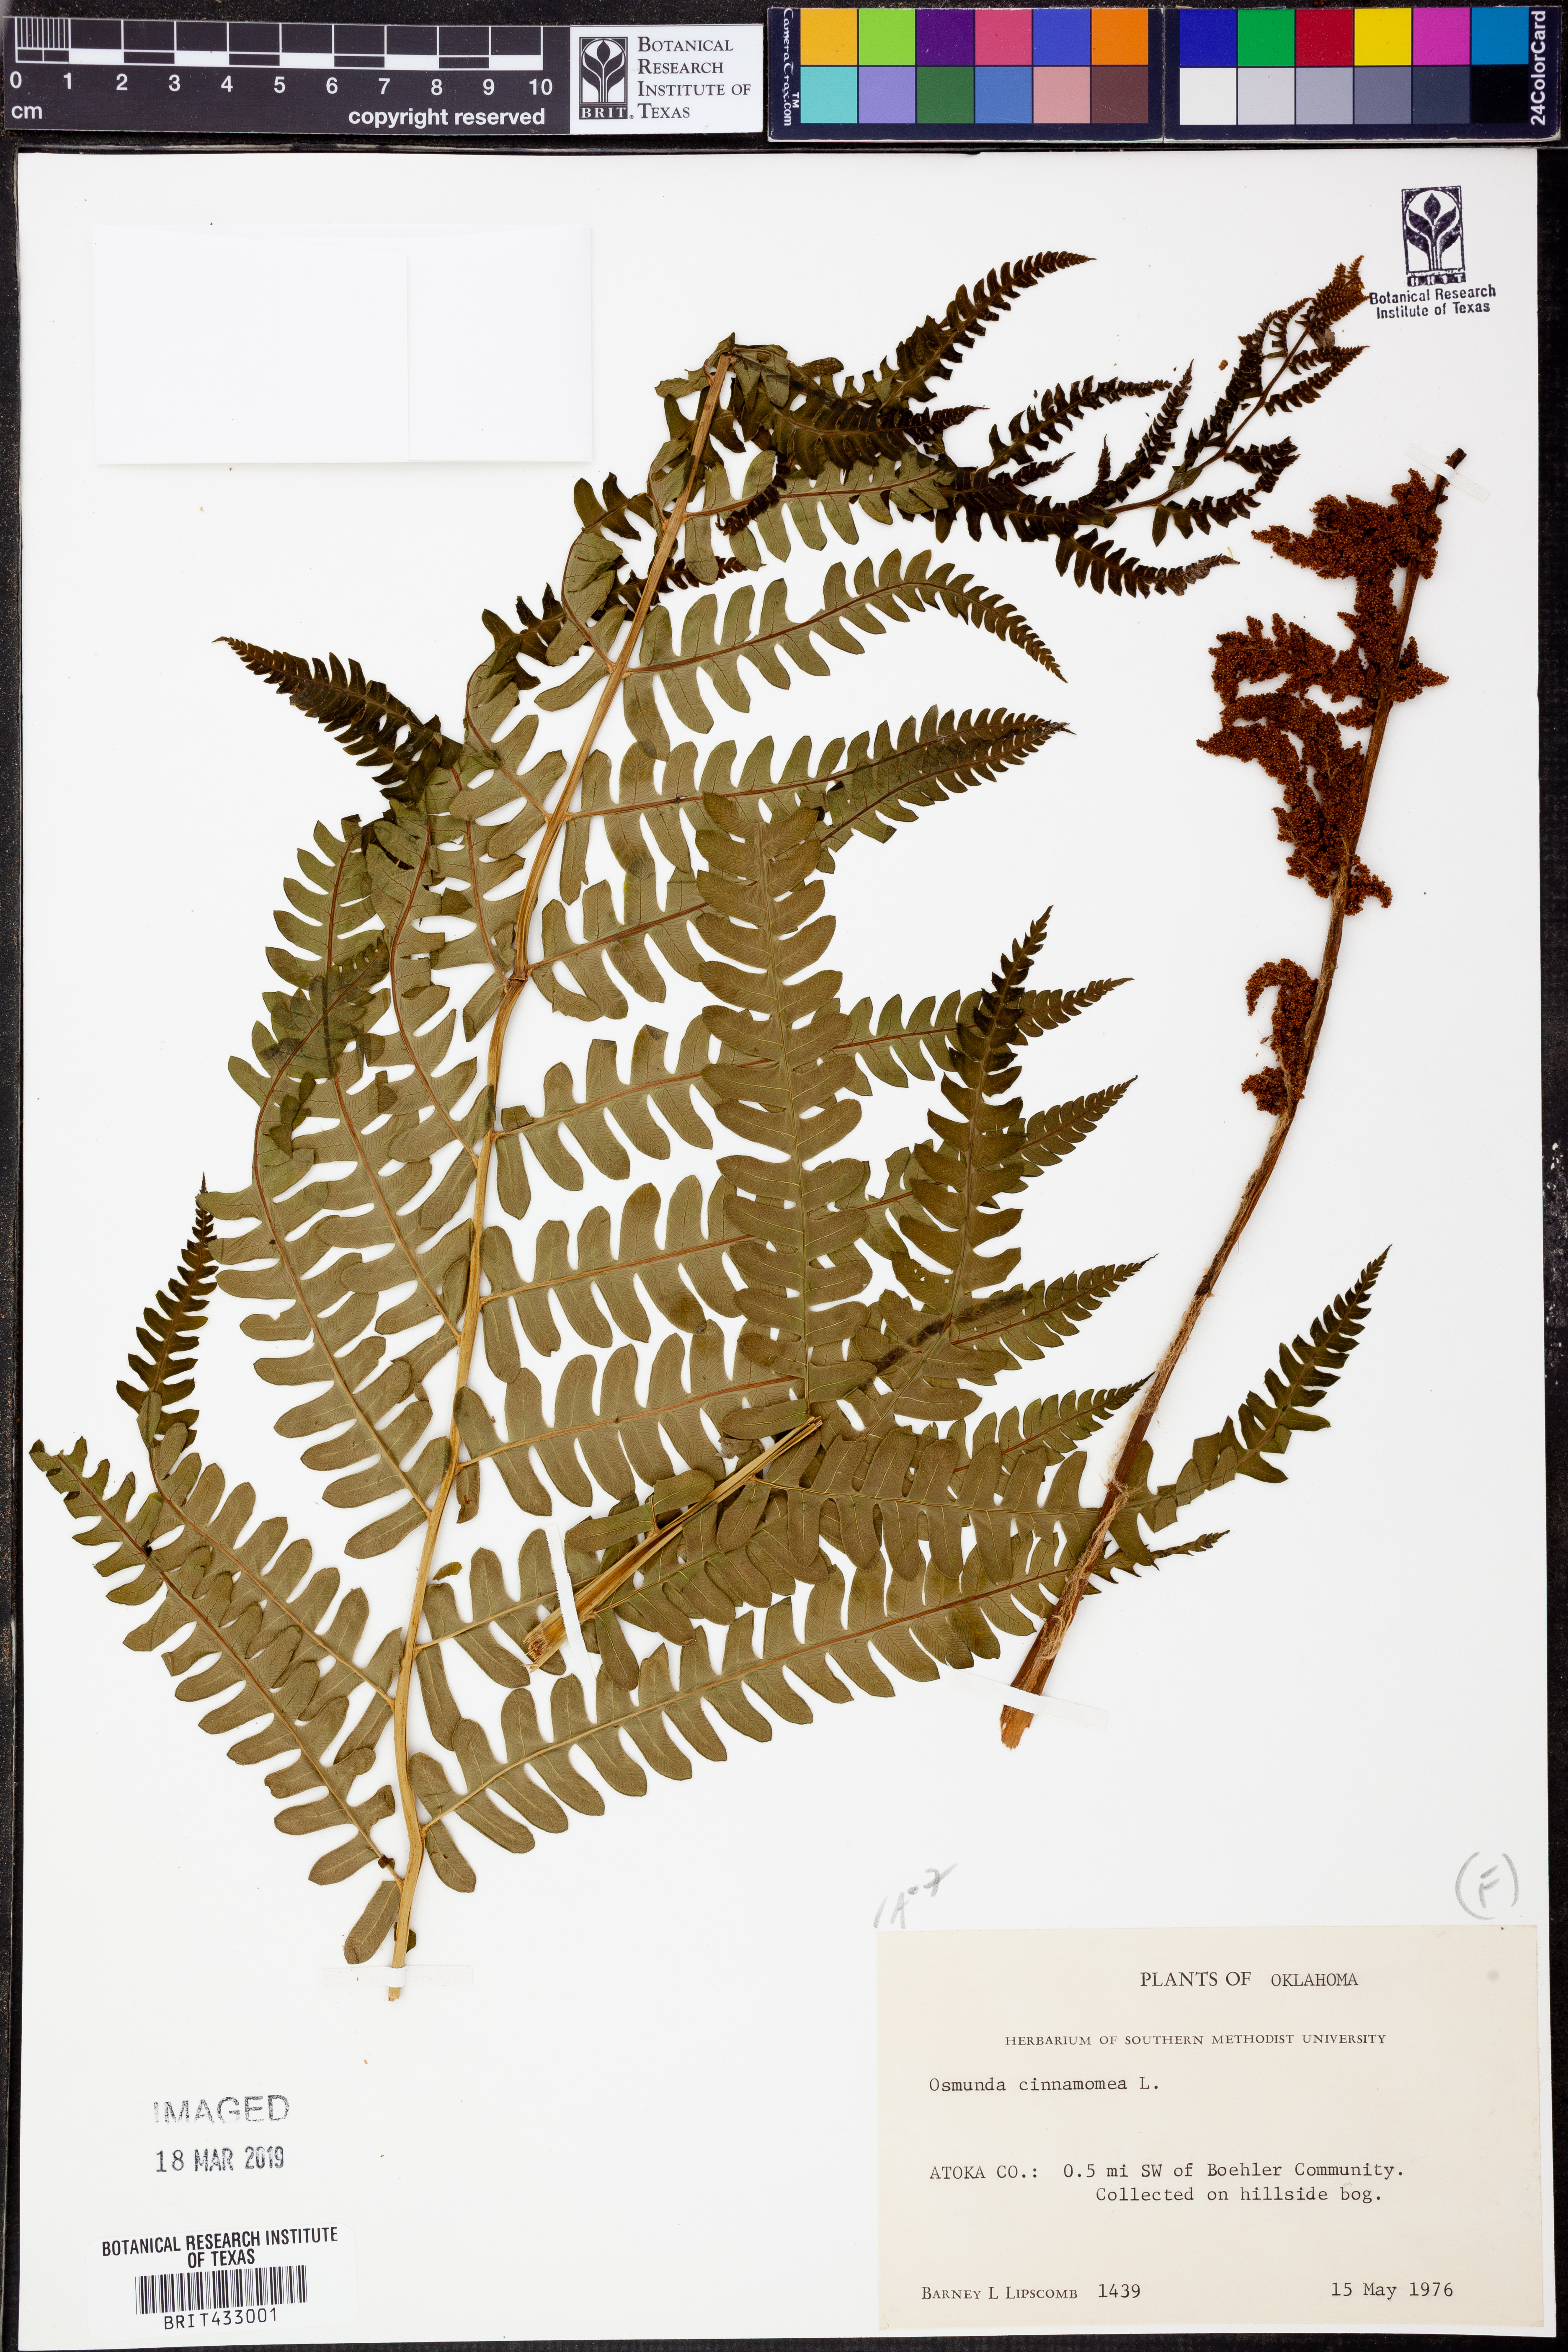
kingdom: Plantae
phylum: Tracheophyta
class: Polypodiopsida
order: Osmundales
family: Osmundaceae
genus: Osmundastrum
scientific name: Osmundastrum cinnamomeum
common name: Cinnamon fern
